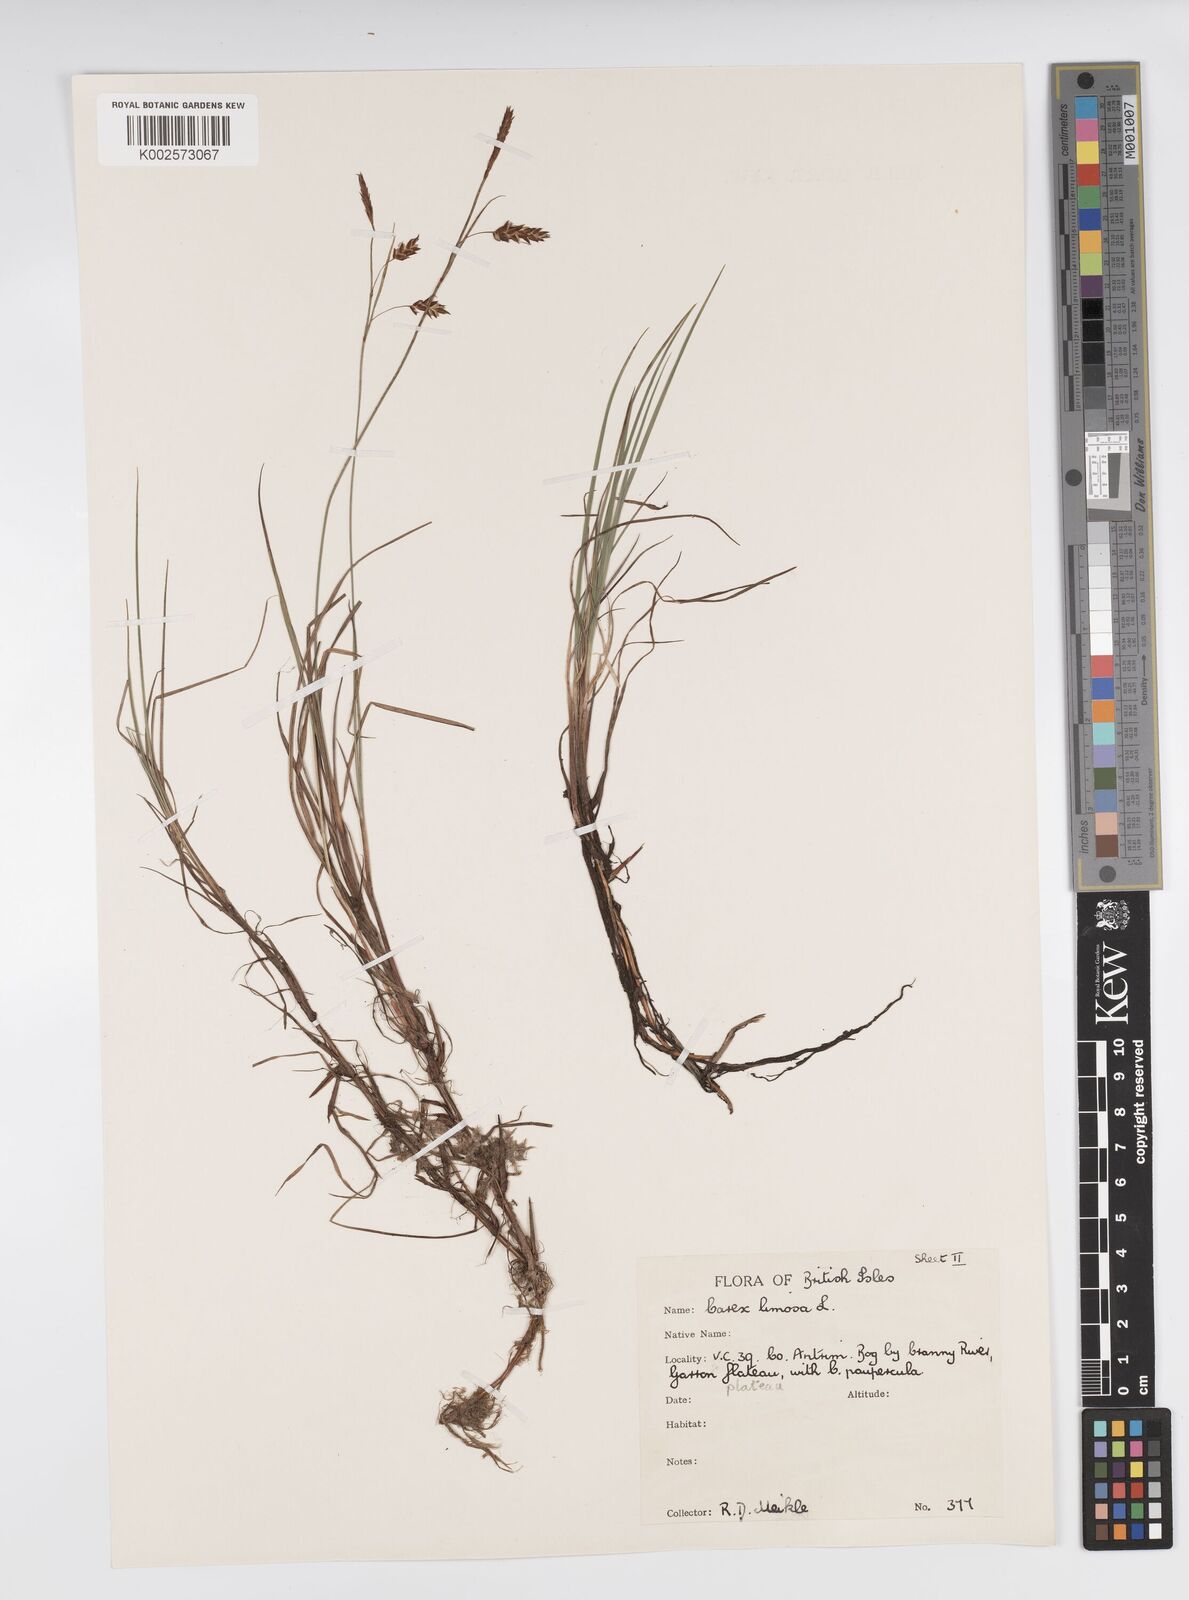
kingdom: Plantae
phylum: Tracheophyta
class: Liliopsida
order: Poales
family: Cyperaceae
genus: Carex
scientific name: Carex limosa
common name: Bog sedge
